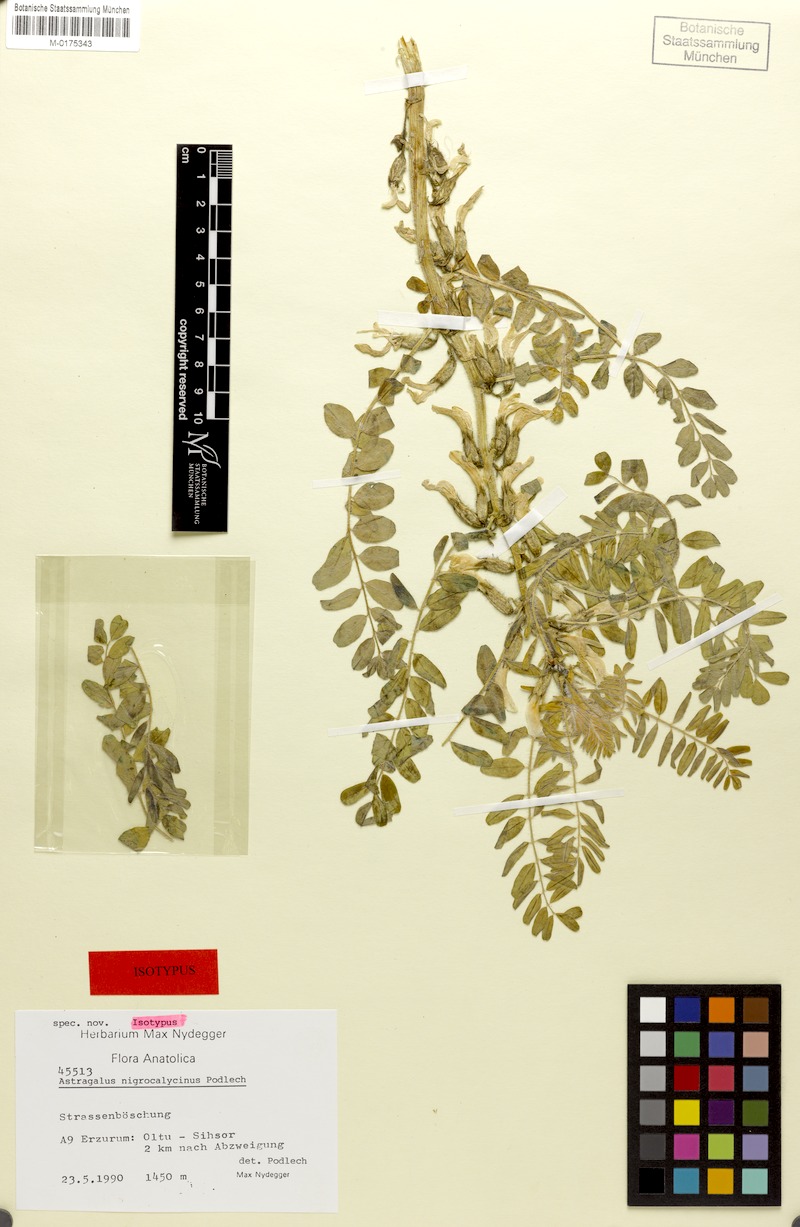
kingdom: Plantae
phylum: Tracheophyta
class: Magnoliopsida
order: Fabales
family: Fabaceae
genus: Astragalus
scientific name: Astragalus nigrocalycinus
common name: Black-calyx milk vetch
